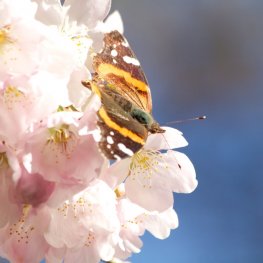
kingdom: Animalia
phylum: Arthropoda
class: Insecta
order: Lepidoptera
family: Nymphalidae
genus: Vanessa
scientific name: Vanessa atalanta
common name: Red Admiral
